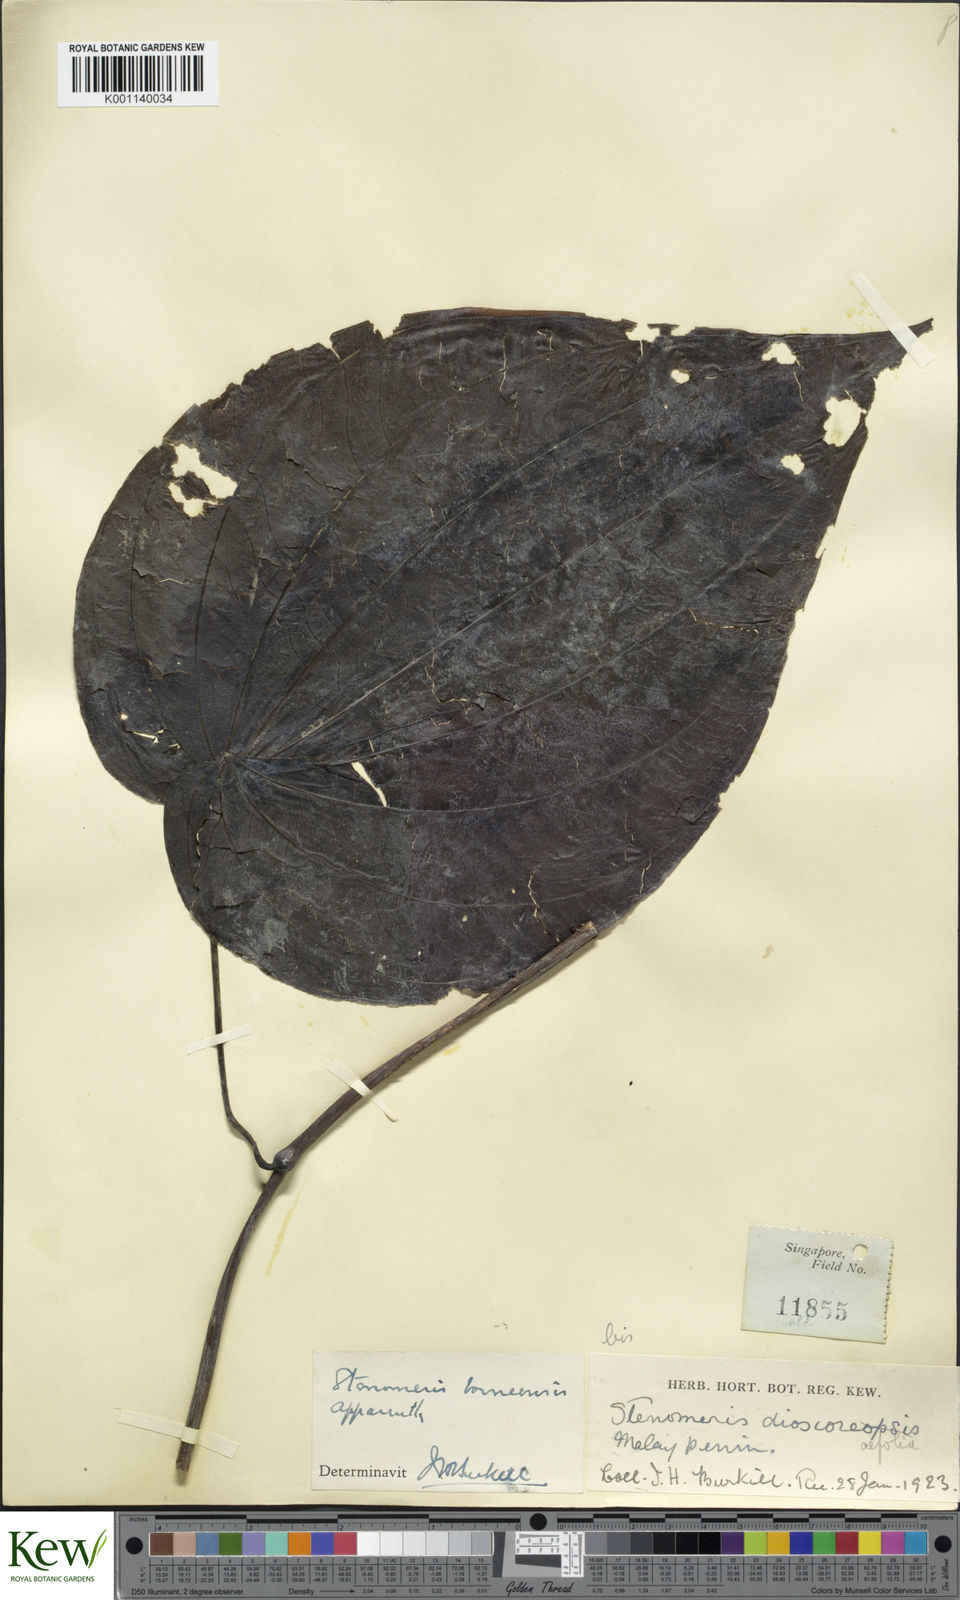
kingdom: Plantae
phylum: Tracheophyta
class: Liliopsida
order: Dioscoreales
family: Dioscoreaceae
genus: Stenomeris
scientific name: Stenomeris borneensis
